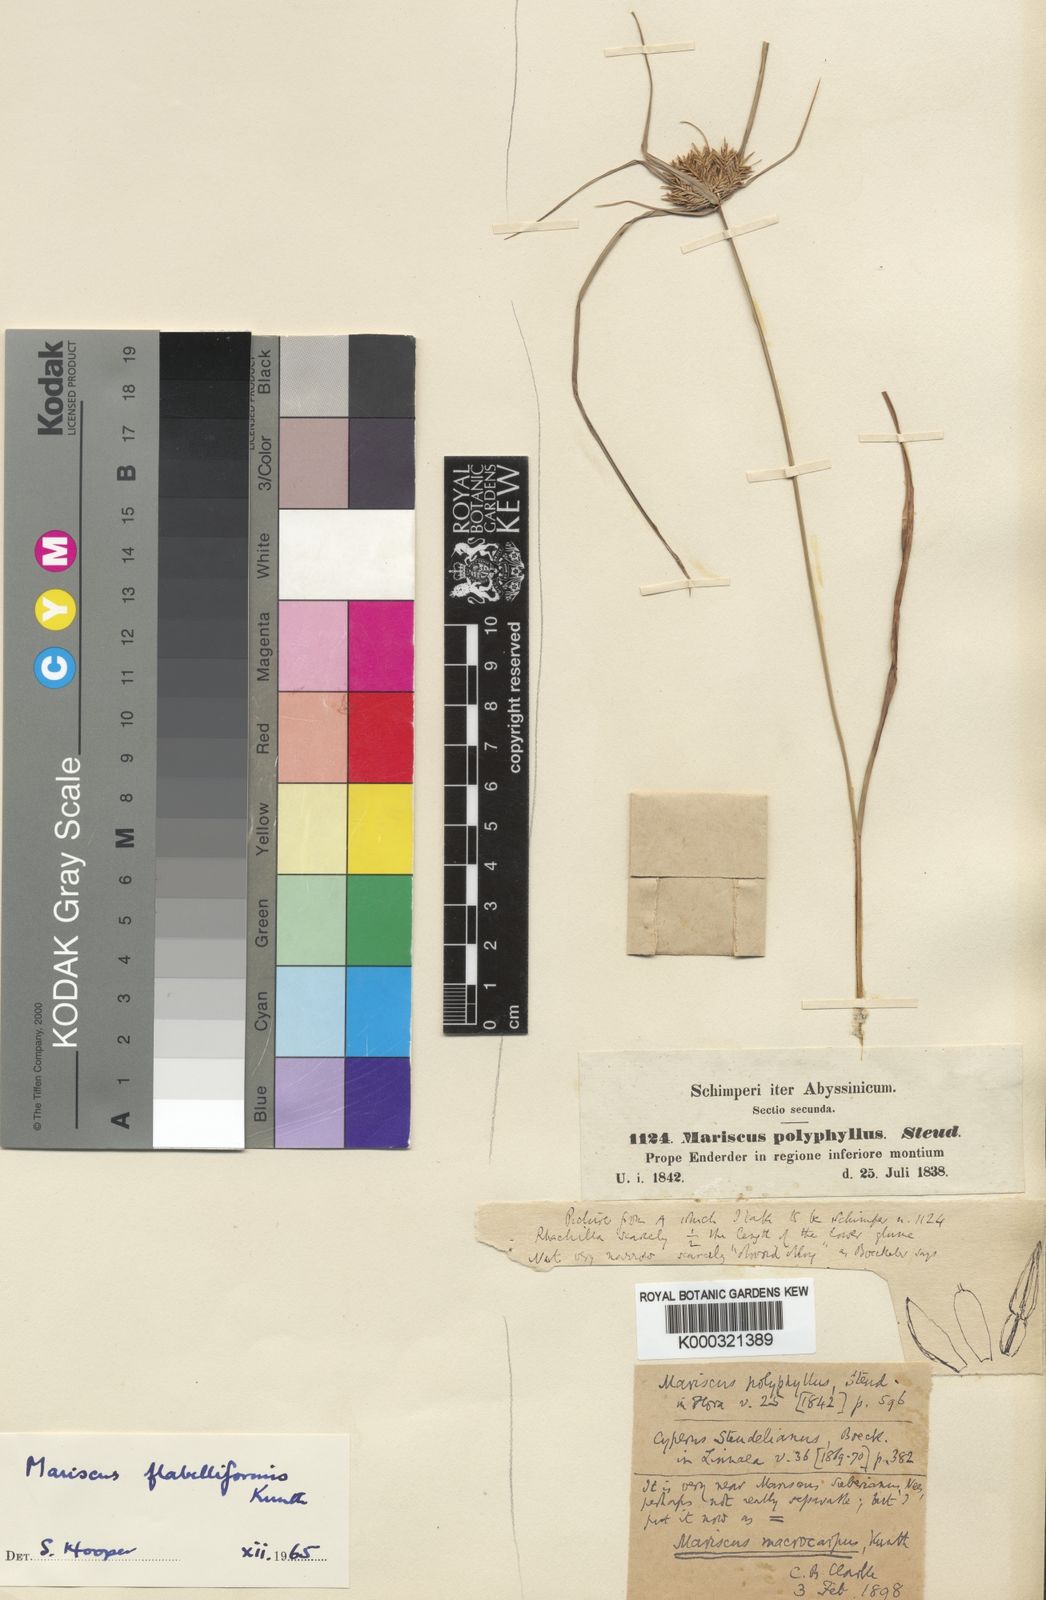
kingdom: Plantae
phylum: Tracheophyta
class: Liliopsida
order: Poales
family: Cyperaceae
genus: Cyperus
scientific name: Cyperus cyperoides
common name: Pacific island flat sedge
